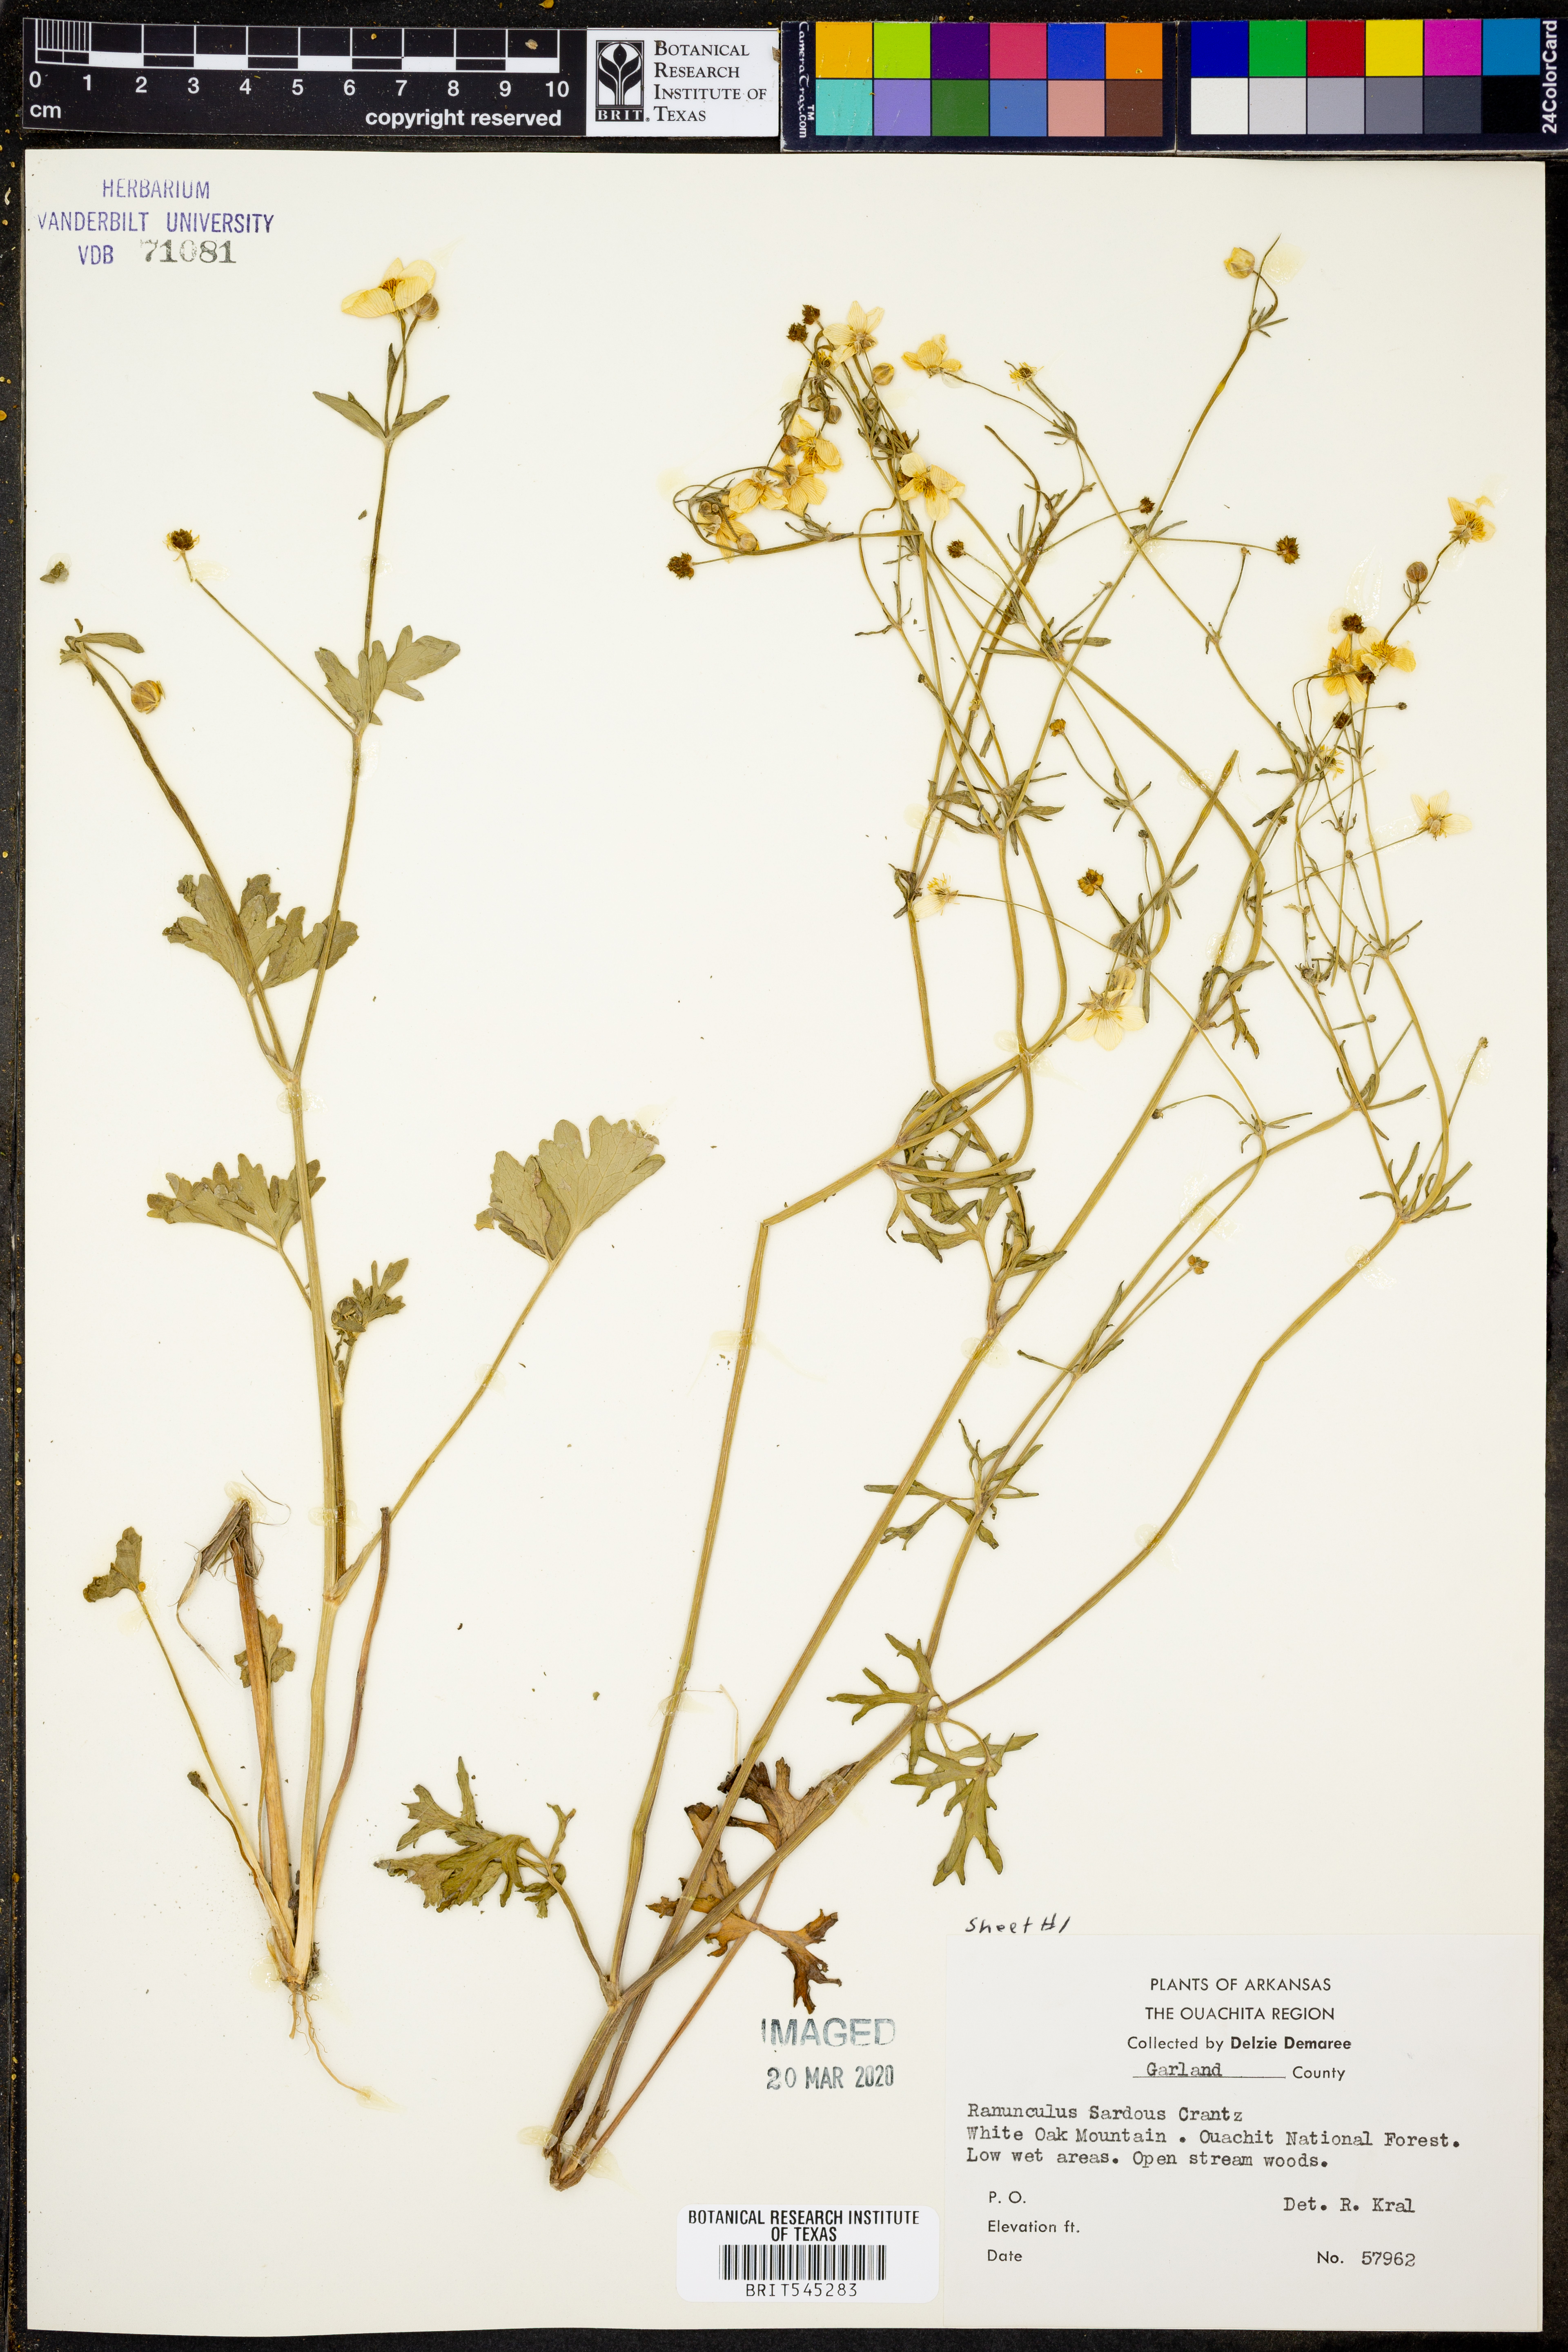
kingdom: Plantae
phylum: Tracheophyta
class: Magnoliopsida
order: Ranunculales
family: Ranunculaceae
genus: Ranunculus
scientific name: Ranunculus sardous
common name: Hairy buttercup
